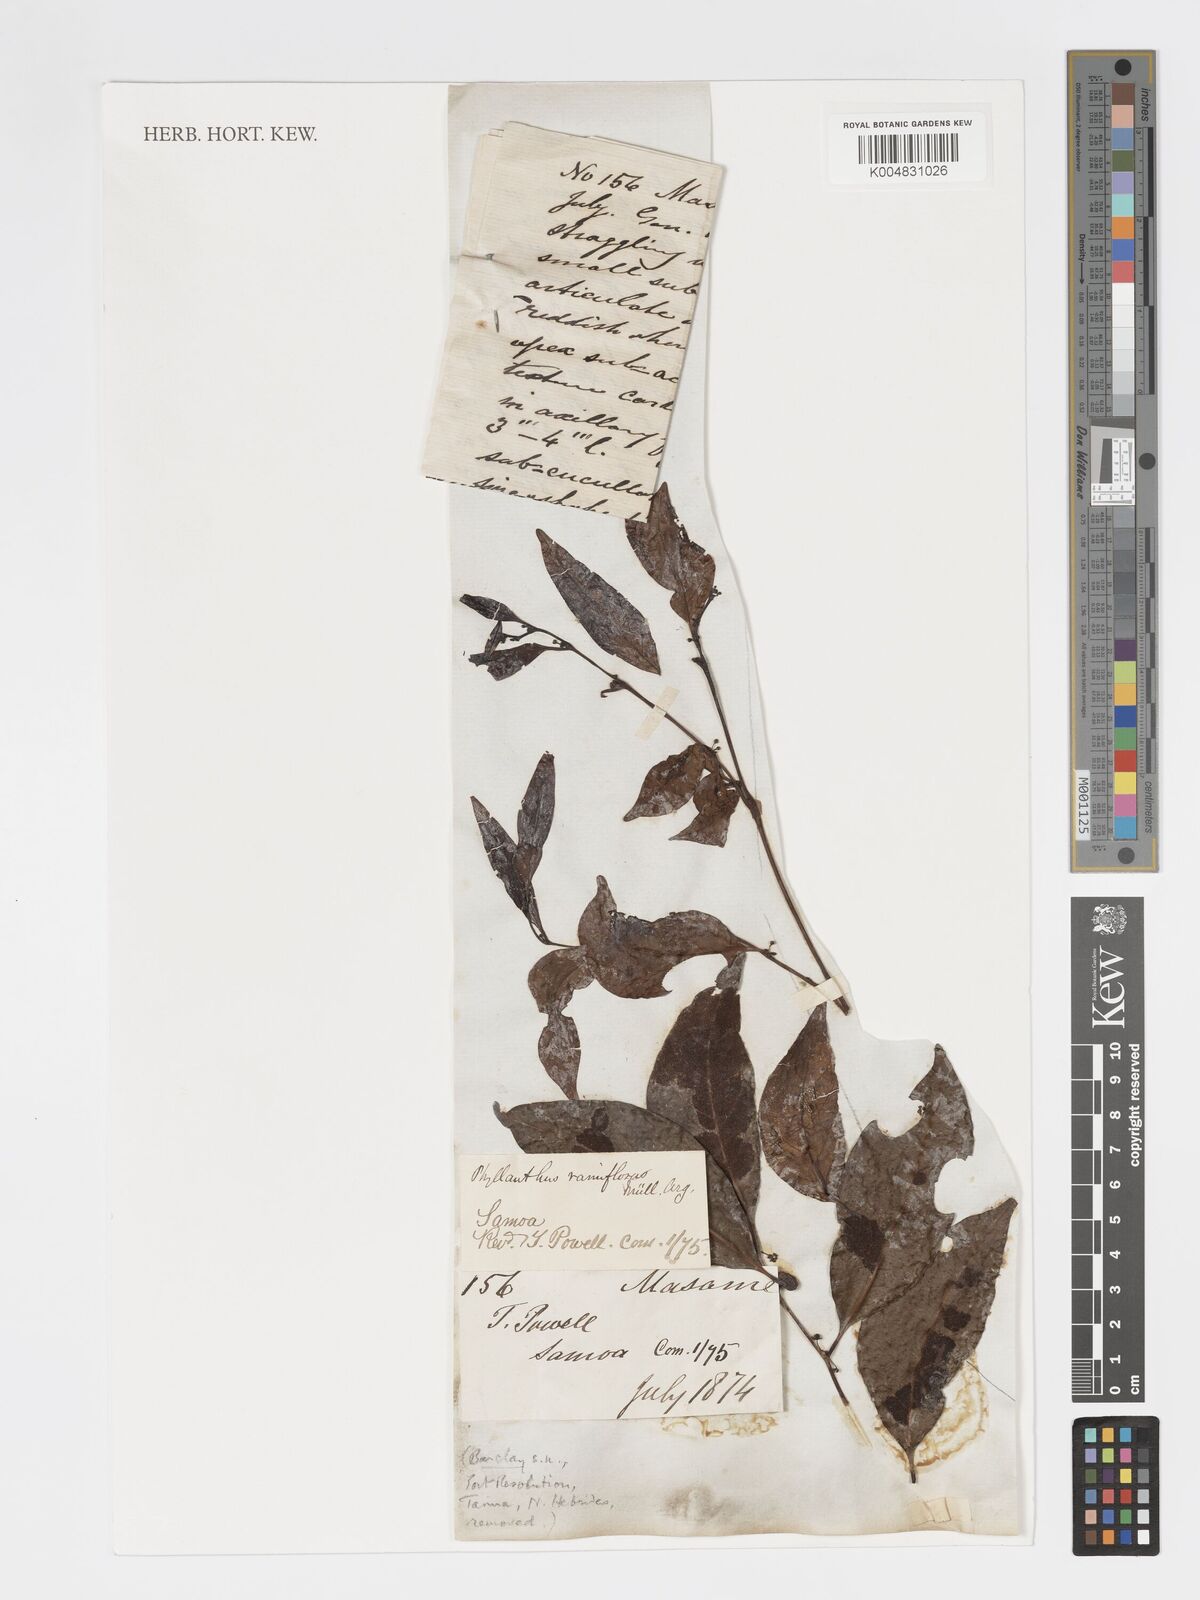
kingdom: Plantae
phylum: Tracheophyta
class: Magnoliopsida
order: Malpighiales
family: Phyllanthaceae
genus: Glochidion
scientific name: Glochidion ramiflorum
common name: Masame
